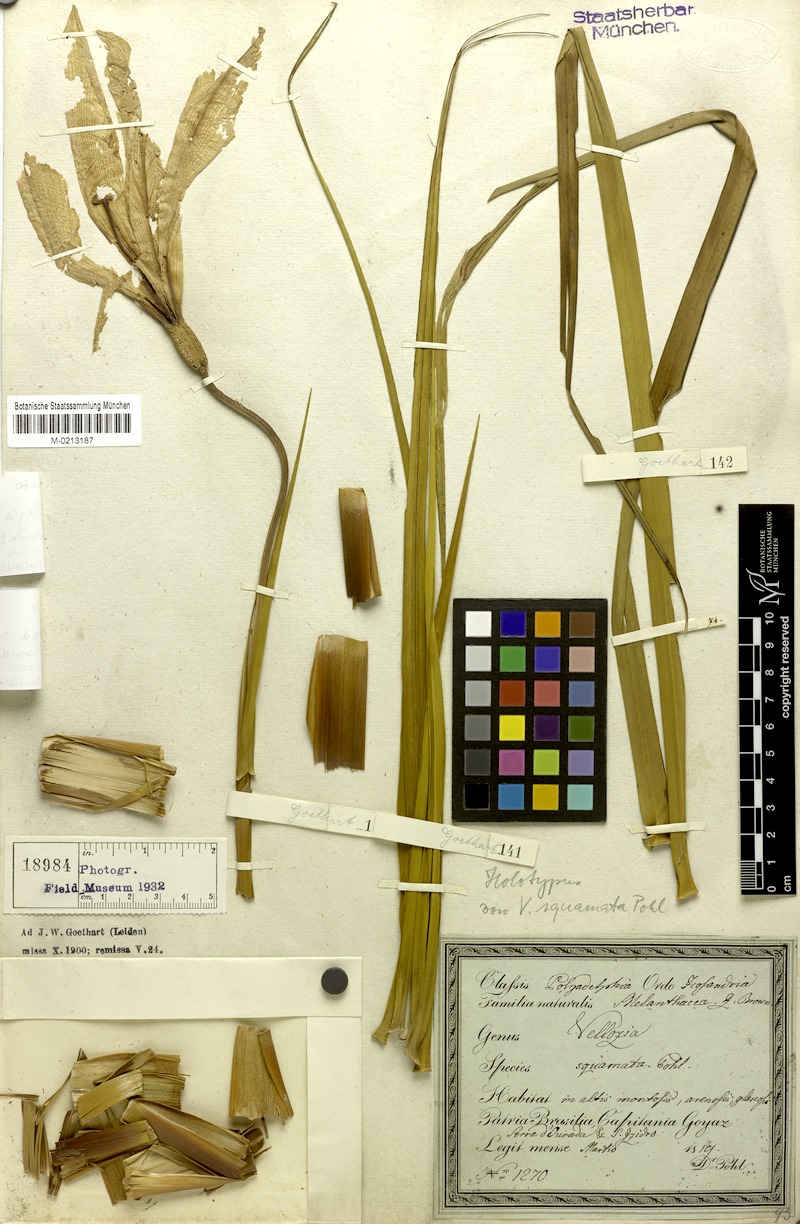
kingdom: Plantae
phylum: Tracheophyta
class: Liliopsida
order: Pandanales
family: Velloziaceae
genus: Vellozia
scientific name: Vellozia squamata
